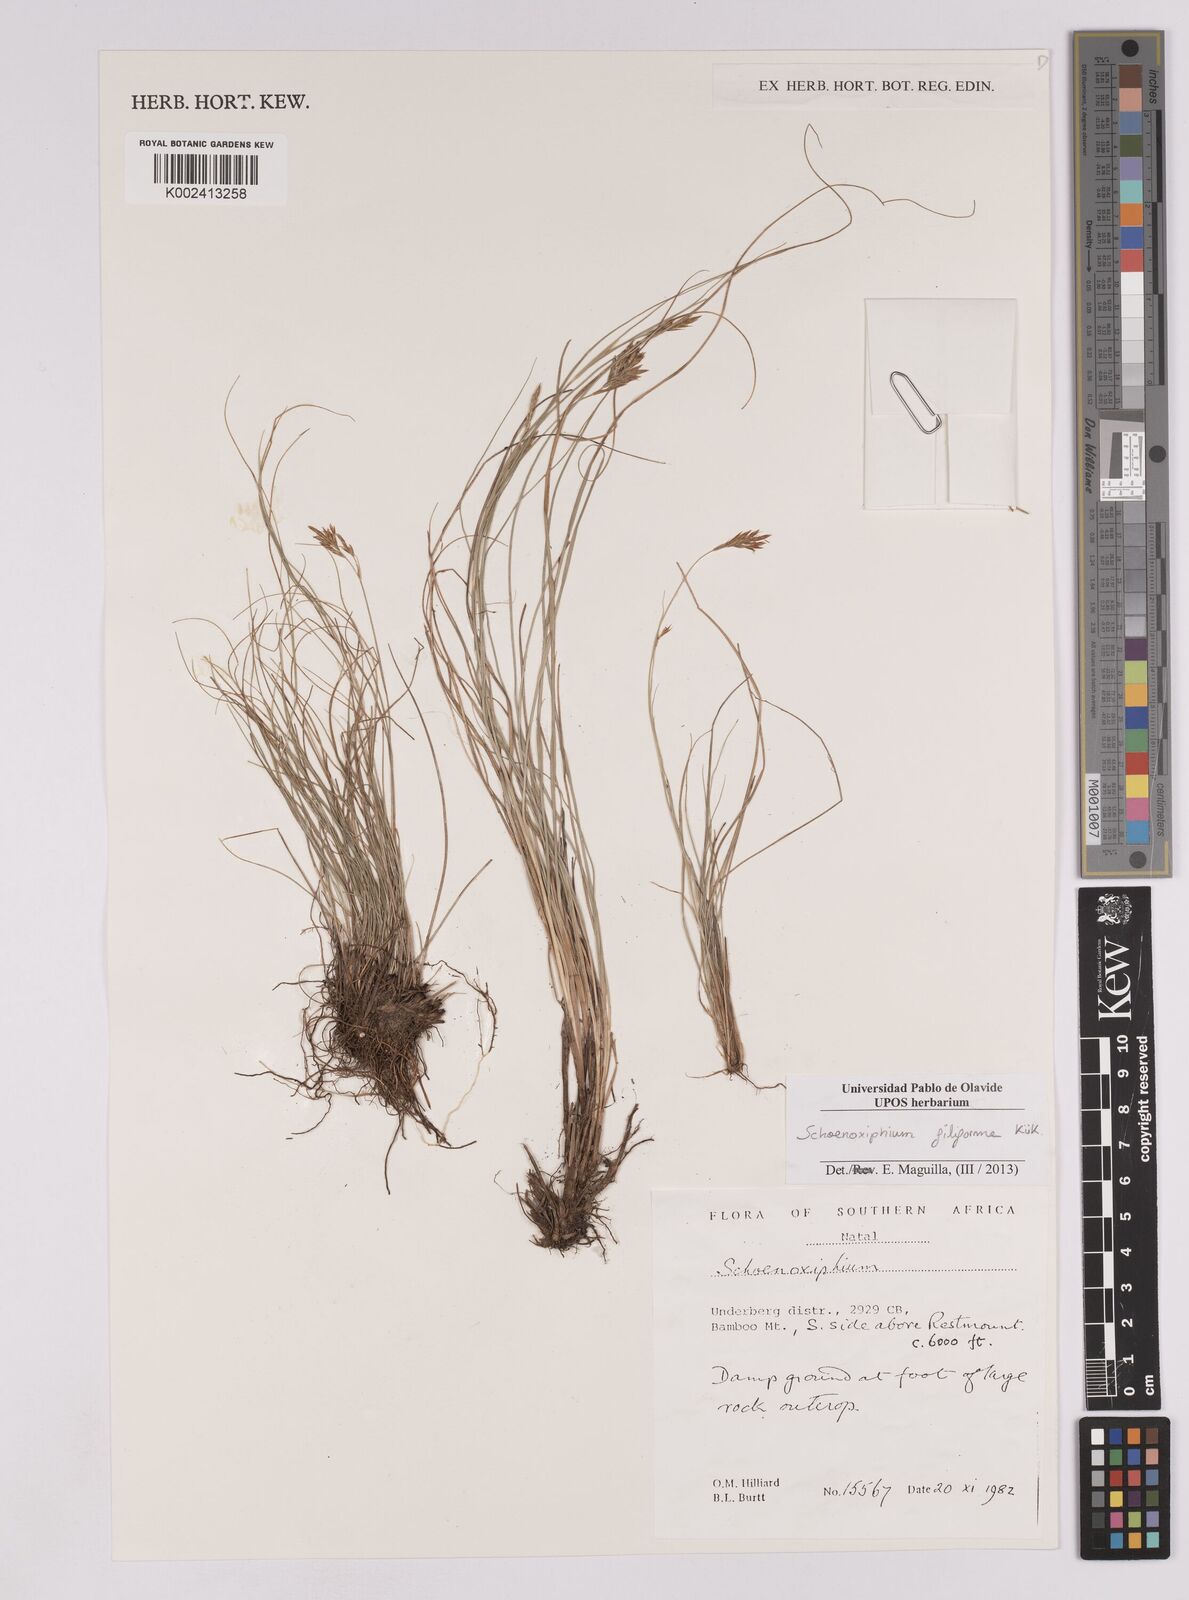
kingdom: Plantae
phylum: Tracheophyta
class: Liliopsida
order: Poales
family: Cyperaceae
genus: Carex
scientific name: Carex killickii
